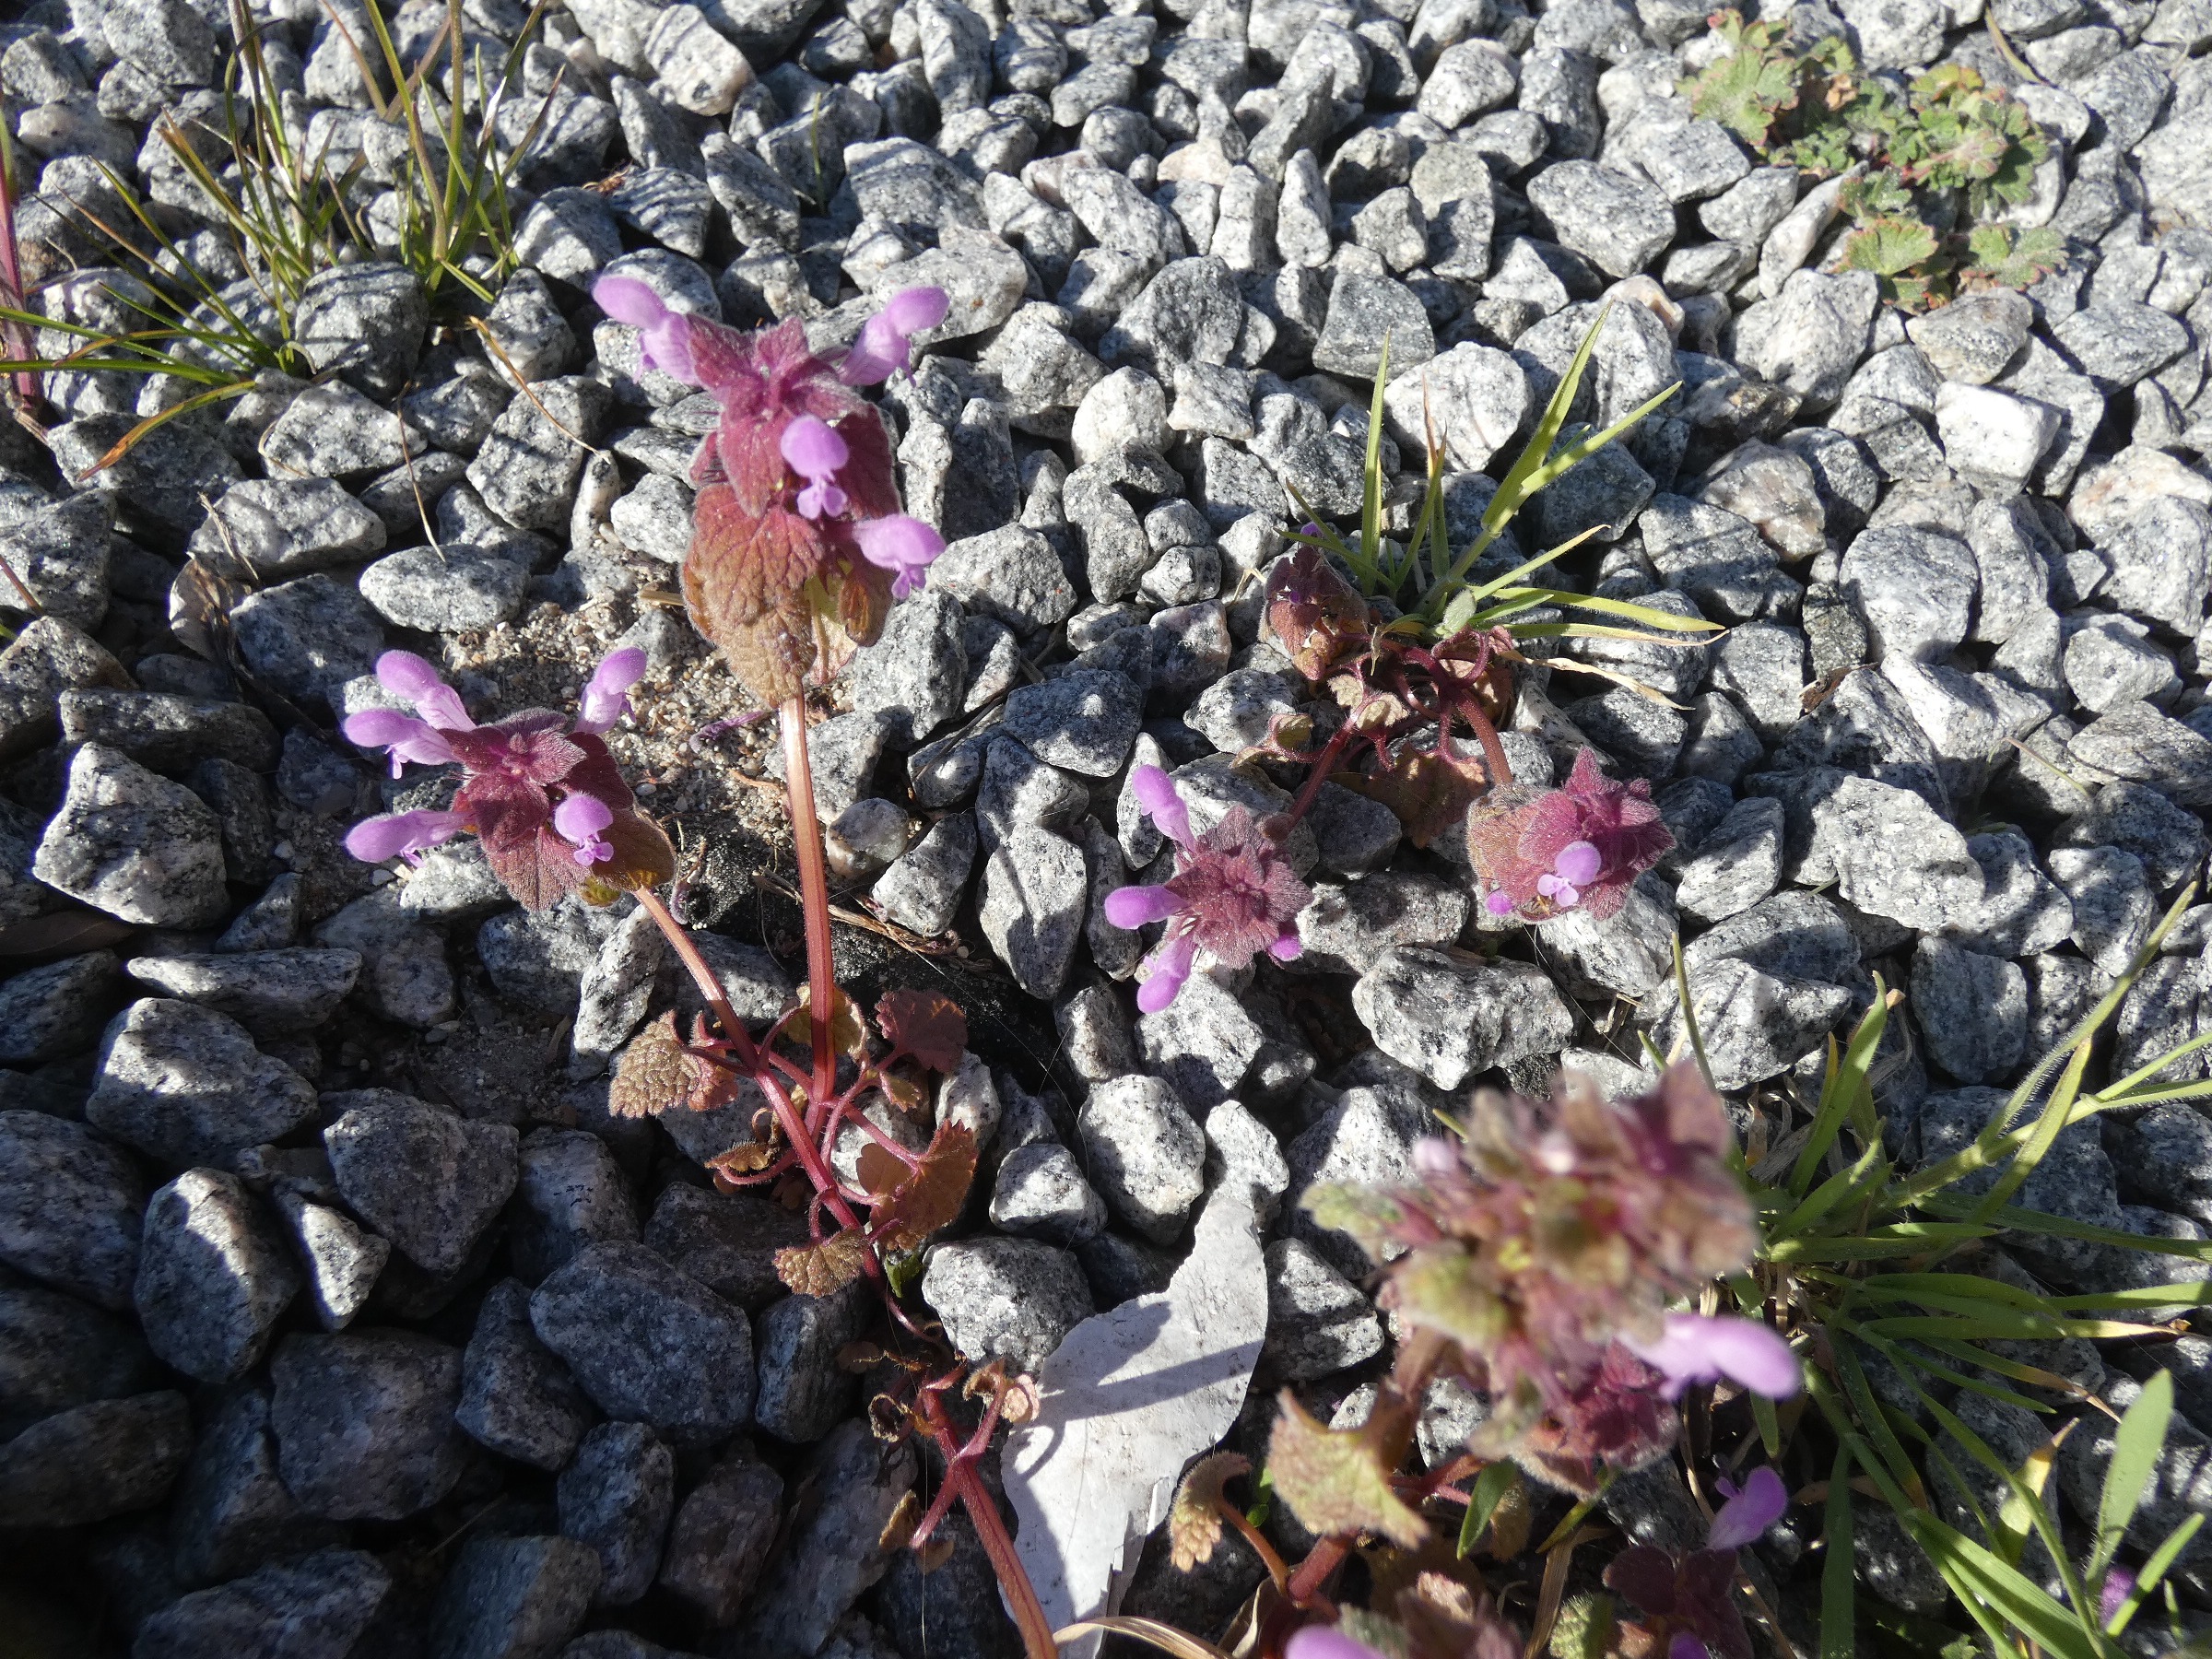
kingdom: Plantae
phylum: Tracheophyta
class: Magnoliopsida
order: Lamiales
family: Lamiaceae
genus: Lamium
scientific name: Lamium purpureum
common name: Rød tvetand
